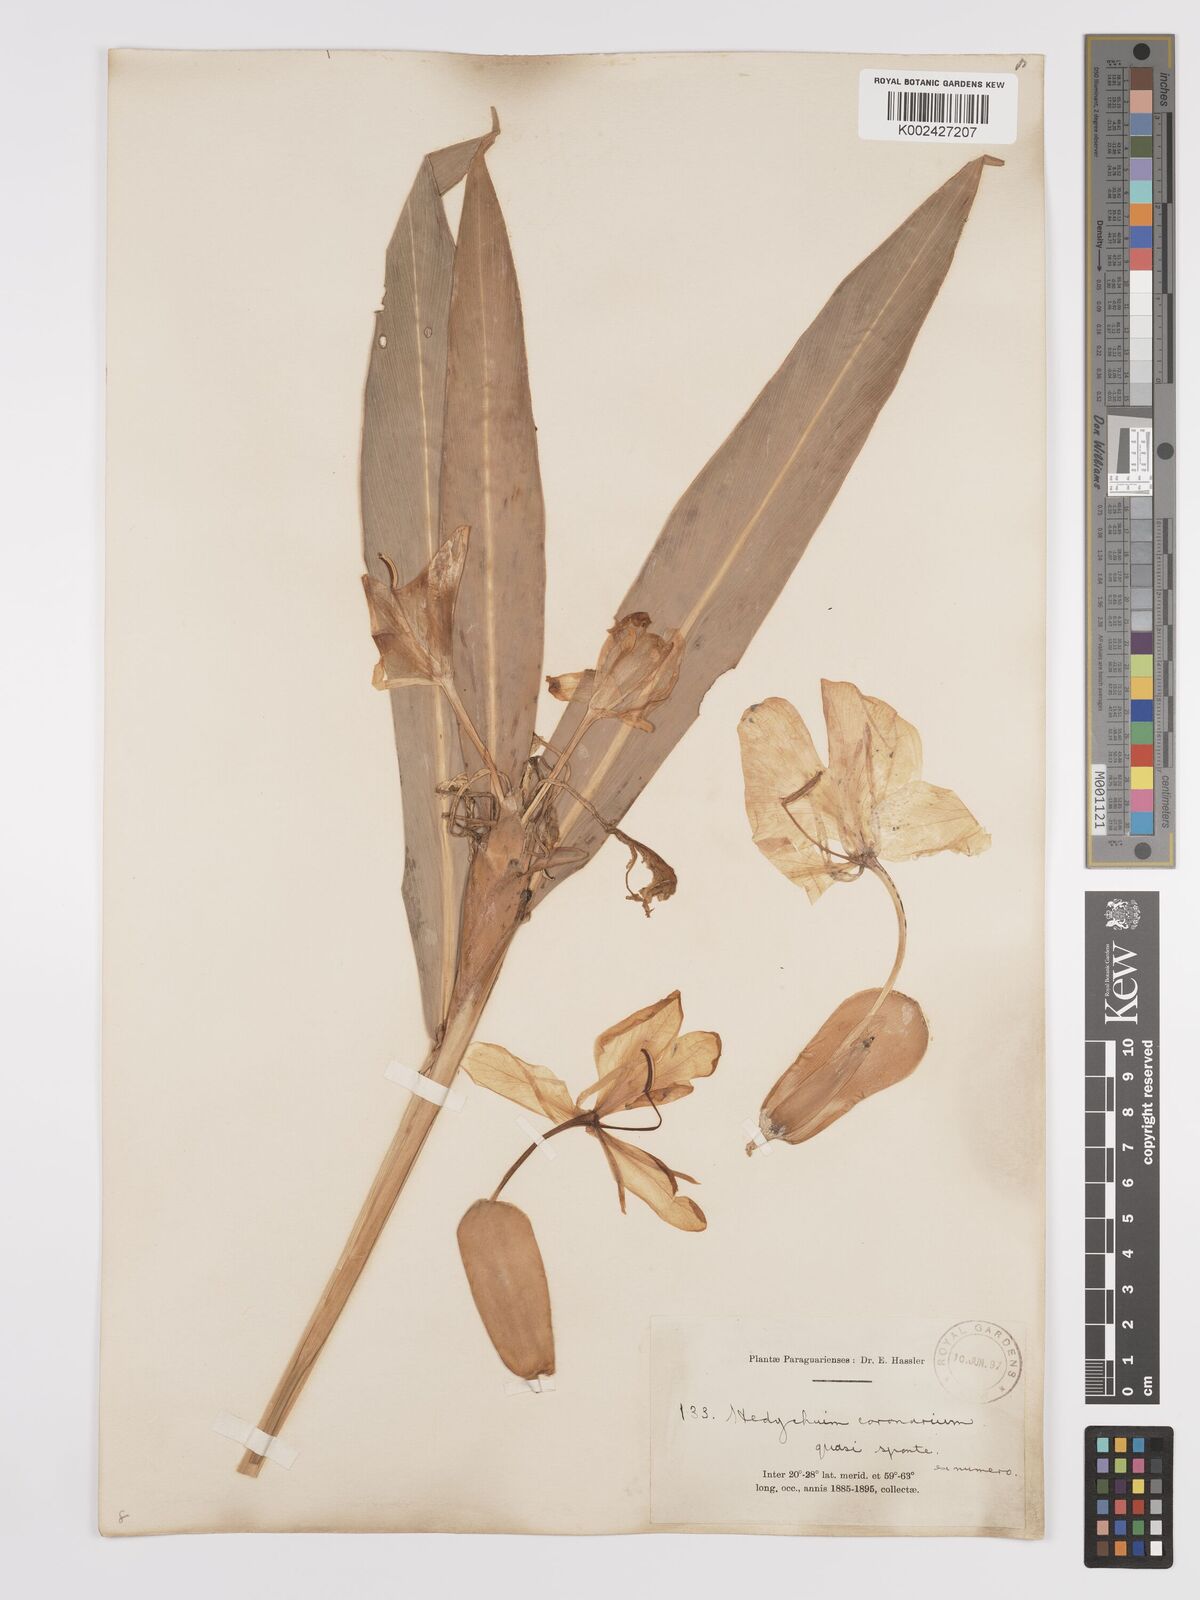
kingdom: Plantae
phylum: Tracheophyta
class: Liliopsida
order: Zingiberales
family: Zingiberaceae
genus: Hedychium
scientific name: Hedychium coronarium
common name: White garland-lily
